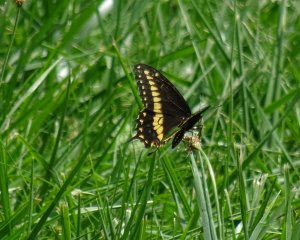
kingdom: Animalia
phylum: Arthropoda
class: Insecta
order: Lepidoptera
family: Papilionidae
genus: Papilio
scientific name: Papilio polyxenes
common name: Black Swallowtail
